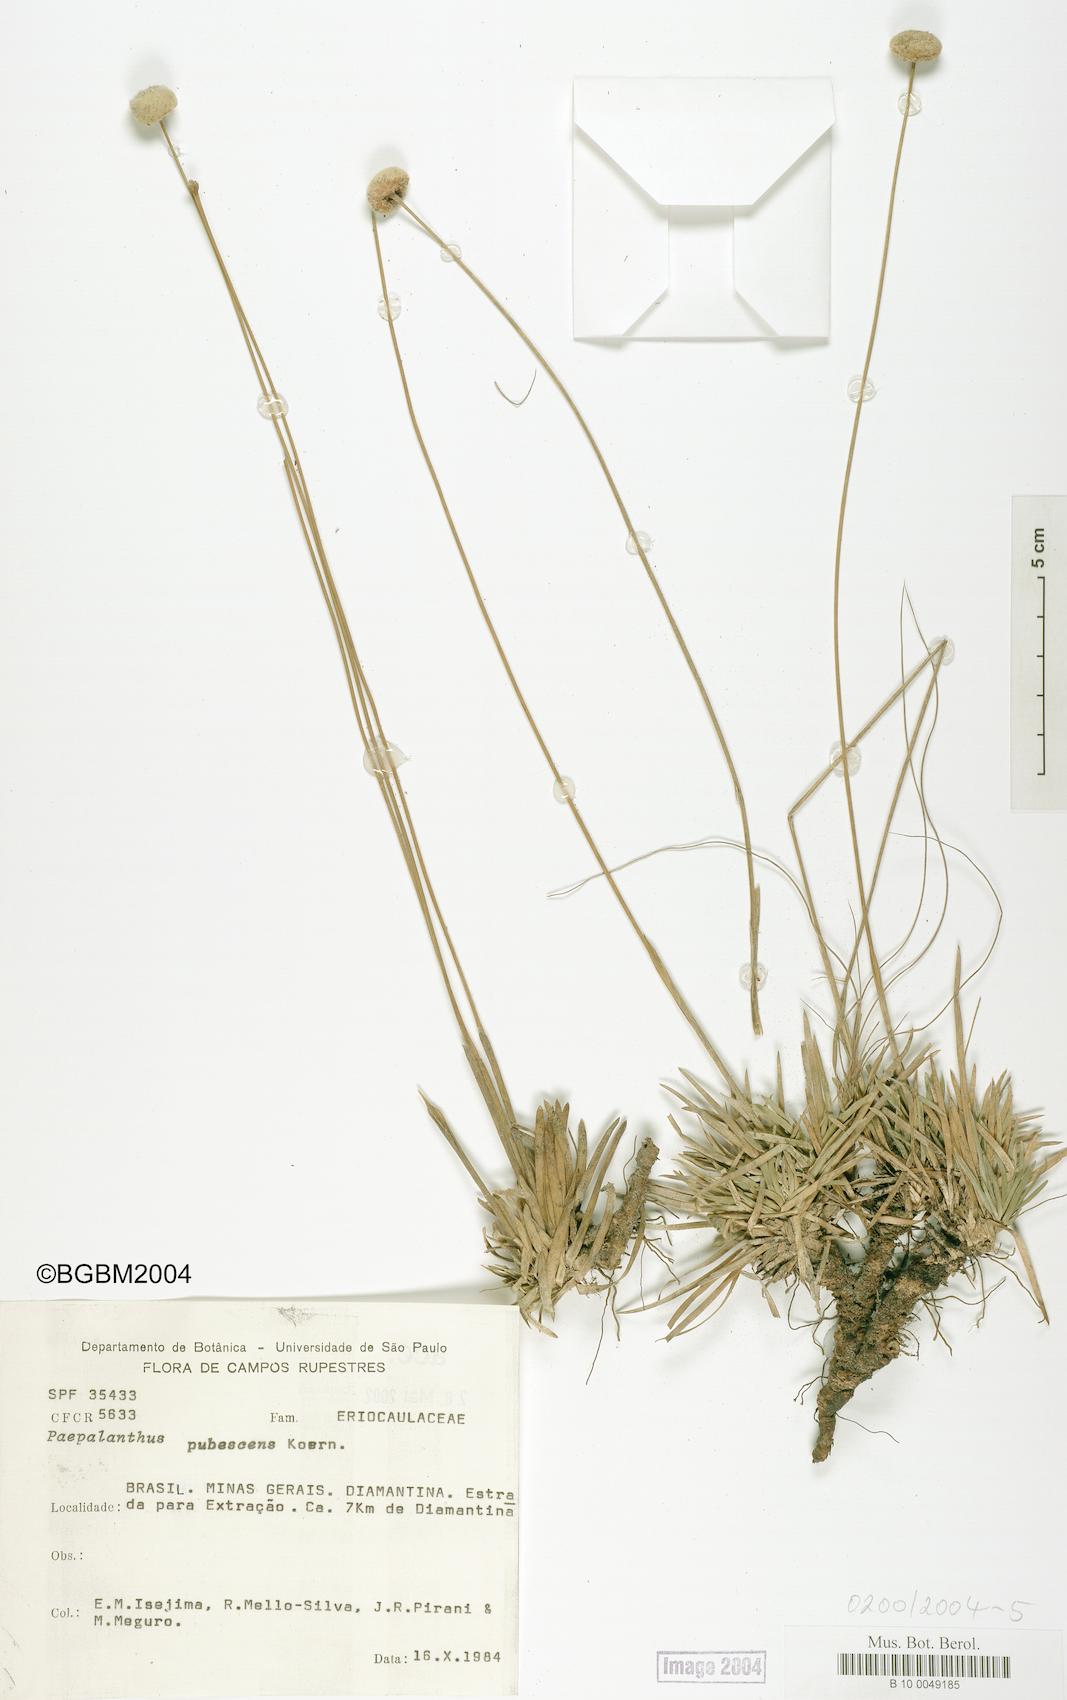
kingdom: Plantae
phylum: Tracheophyta
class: Liliopsida
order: Poales
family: Eriocaulaceae
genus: Paepalanthus
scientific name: Paepalanthus pubescens
